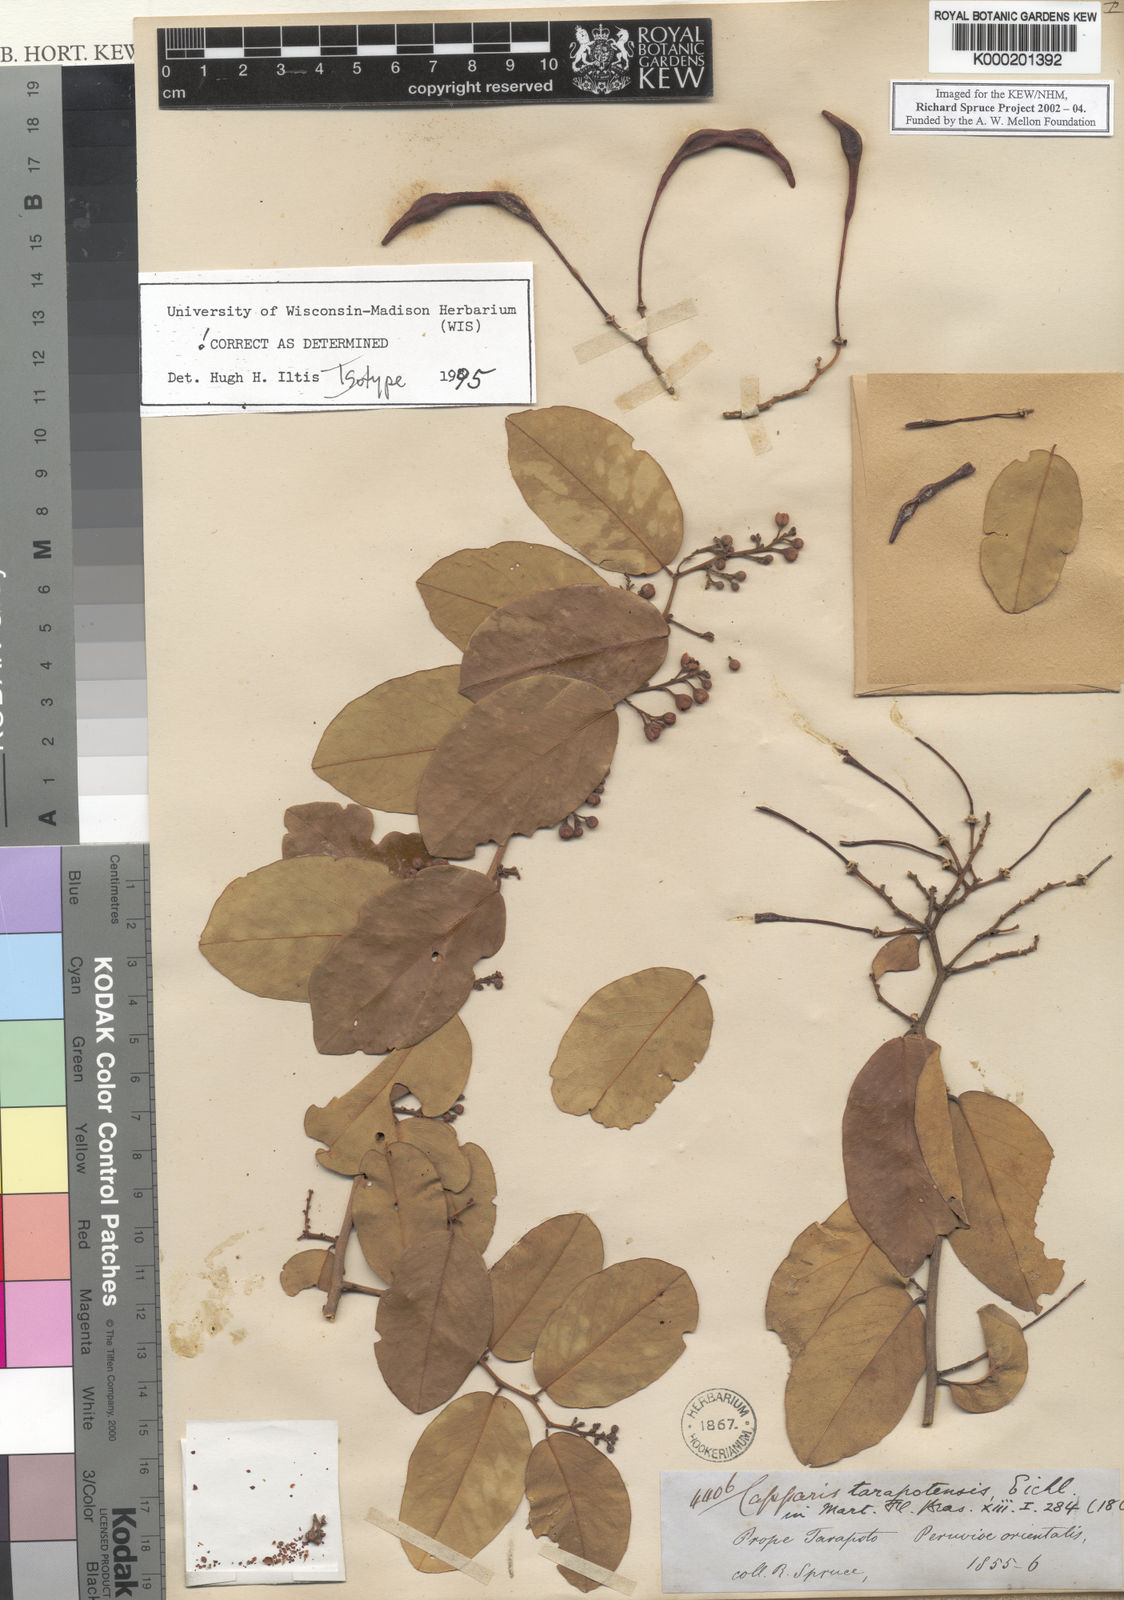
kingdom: Plantae
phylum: Tracheophyta
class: Magnoliopsida
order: Brassicales
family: Capparaceae
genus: Cynophalla
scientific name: Cynophalla tarapotensis
